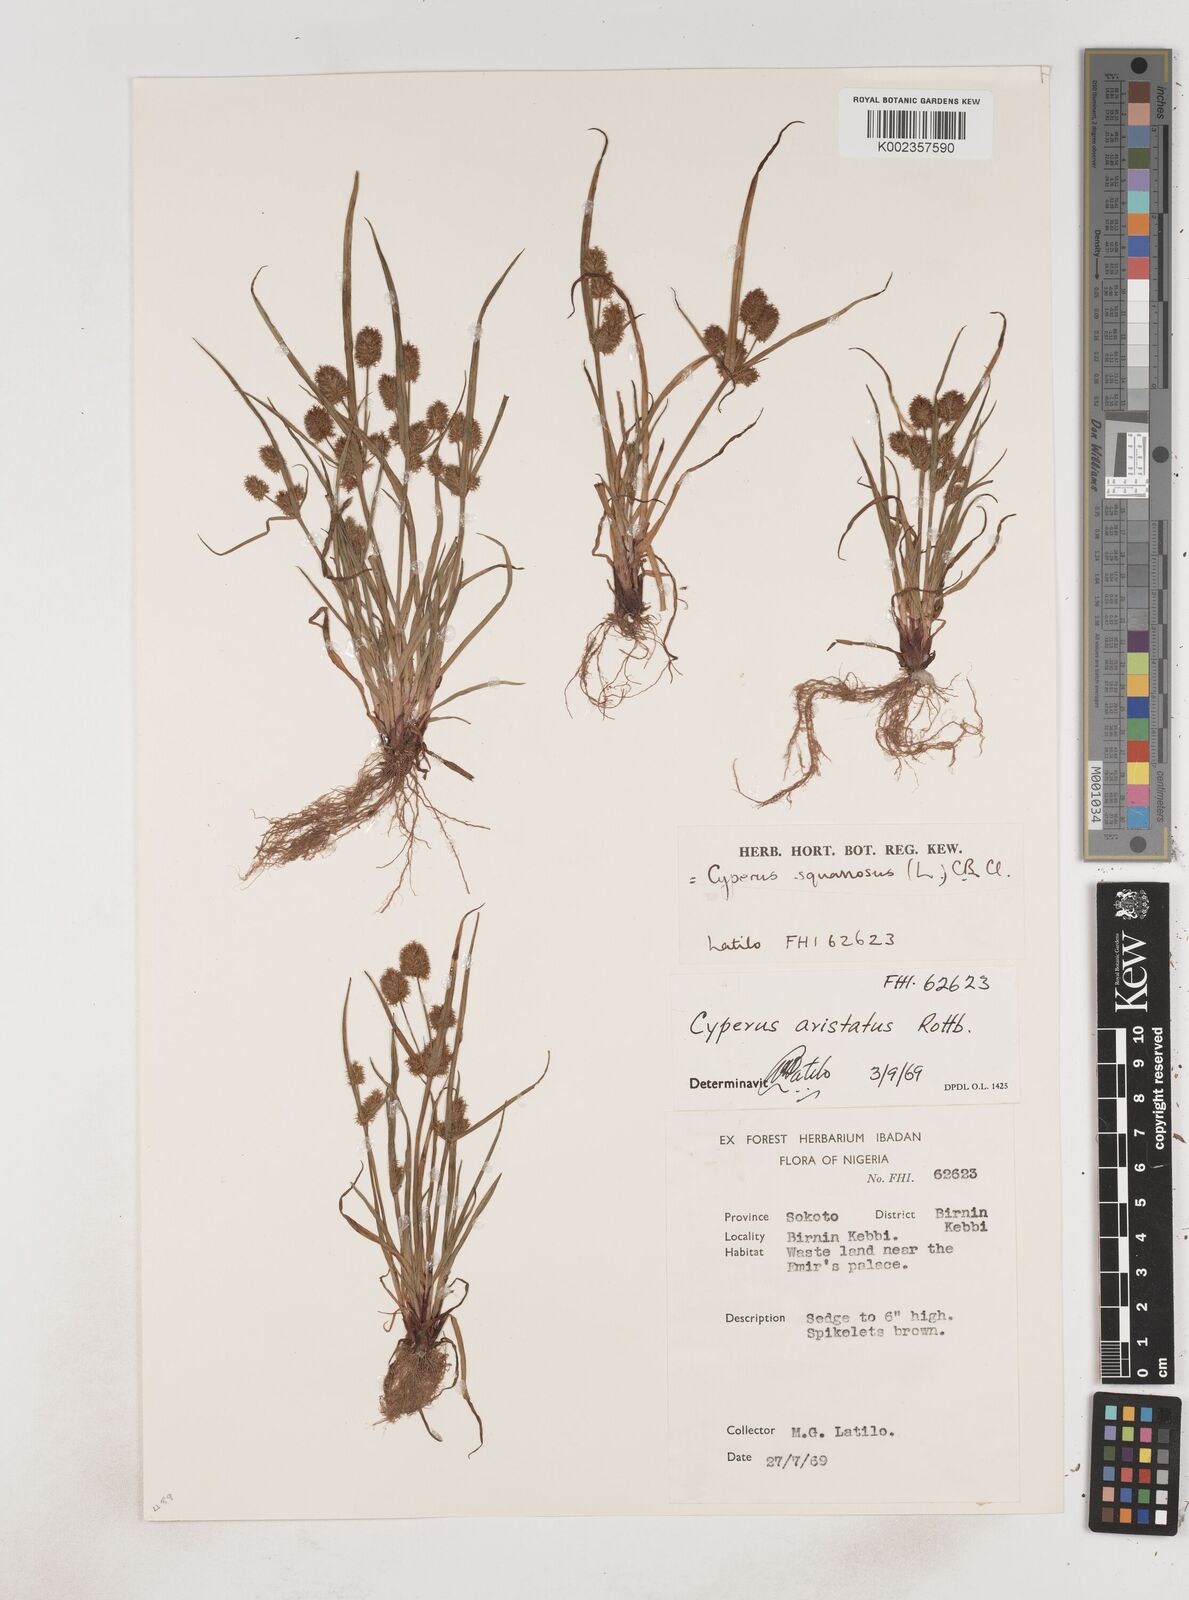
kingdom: Plantae
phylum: Tracheophyta
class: Liliopsida
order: Poales
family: Cyperaceae
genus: Cyperus
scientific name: Cyperus squarrosus
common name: Awned cyperus
